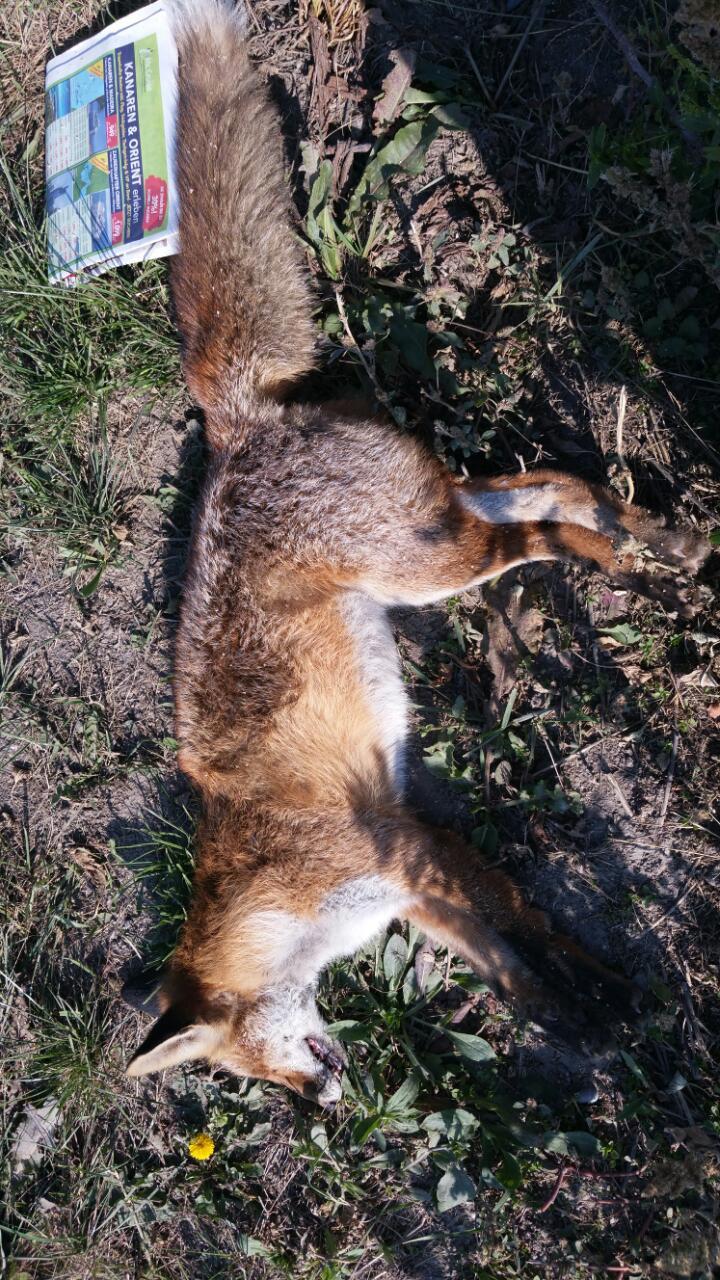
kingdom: Animalia
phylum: Chordata
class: Mammalia
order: Carnivora
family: Canidae
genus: Vulpes
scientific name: Vulpes vulpes
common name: Red fox
